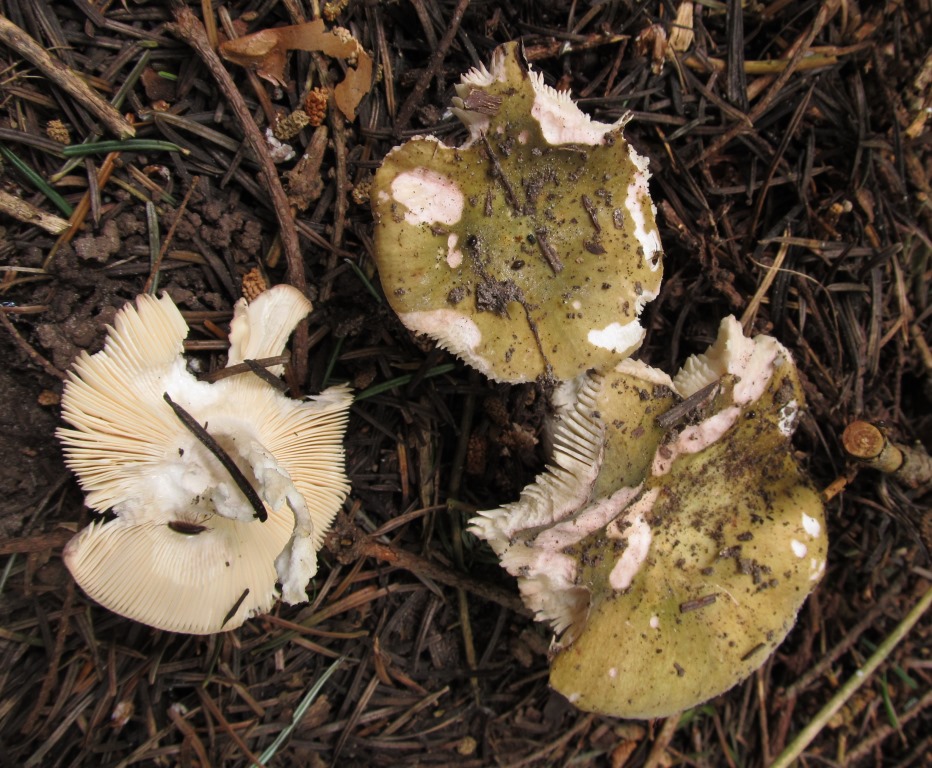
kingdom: Fungi
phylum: Basidiomycota
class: Agaricomycetes
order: Russulales
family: Russulaceae
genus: Russula
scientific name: Russula
